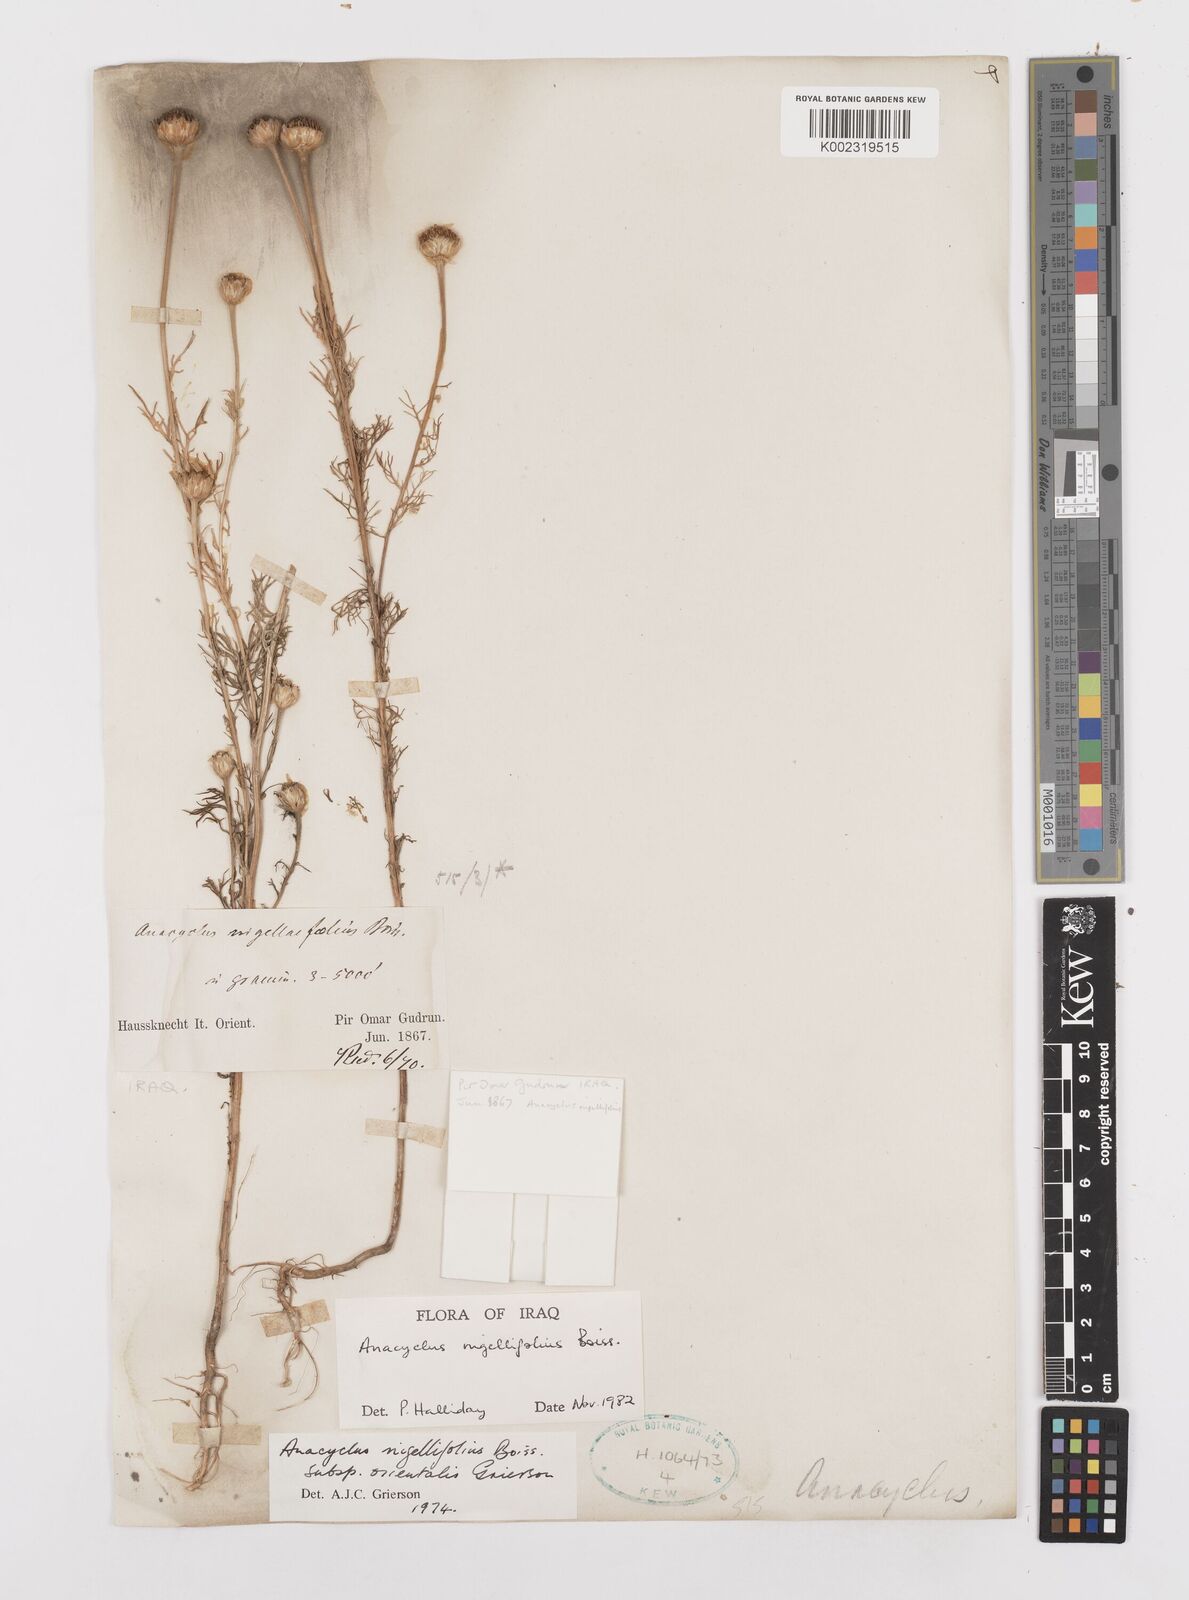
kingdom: Plantae
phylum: Tracheophyta
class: Magnoliopsida
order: Asterales
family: Asteraceae
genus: Cota
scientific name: Cota nigellifolia
